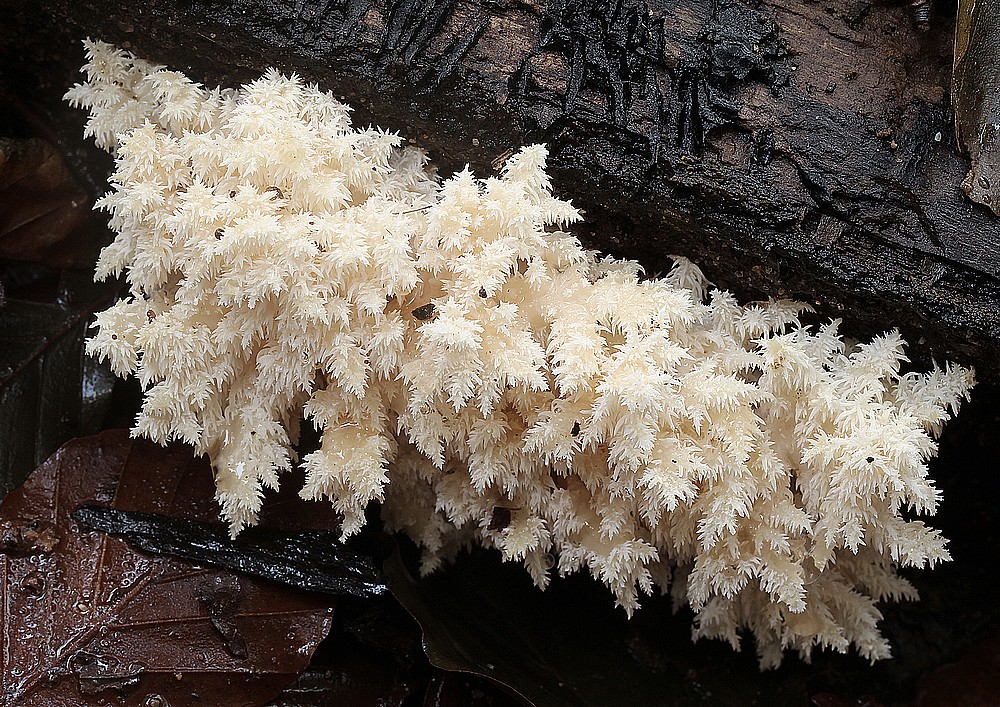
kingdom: Fungi
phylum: Basidiomycota
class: Agaricomycetes
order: Russulales
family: Hericiaceae
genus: Hericium
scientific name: Hericium coralloides
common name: koralpigsvamp
